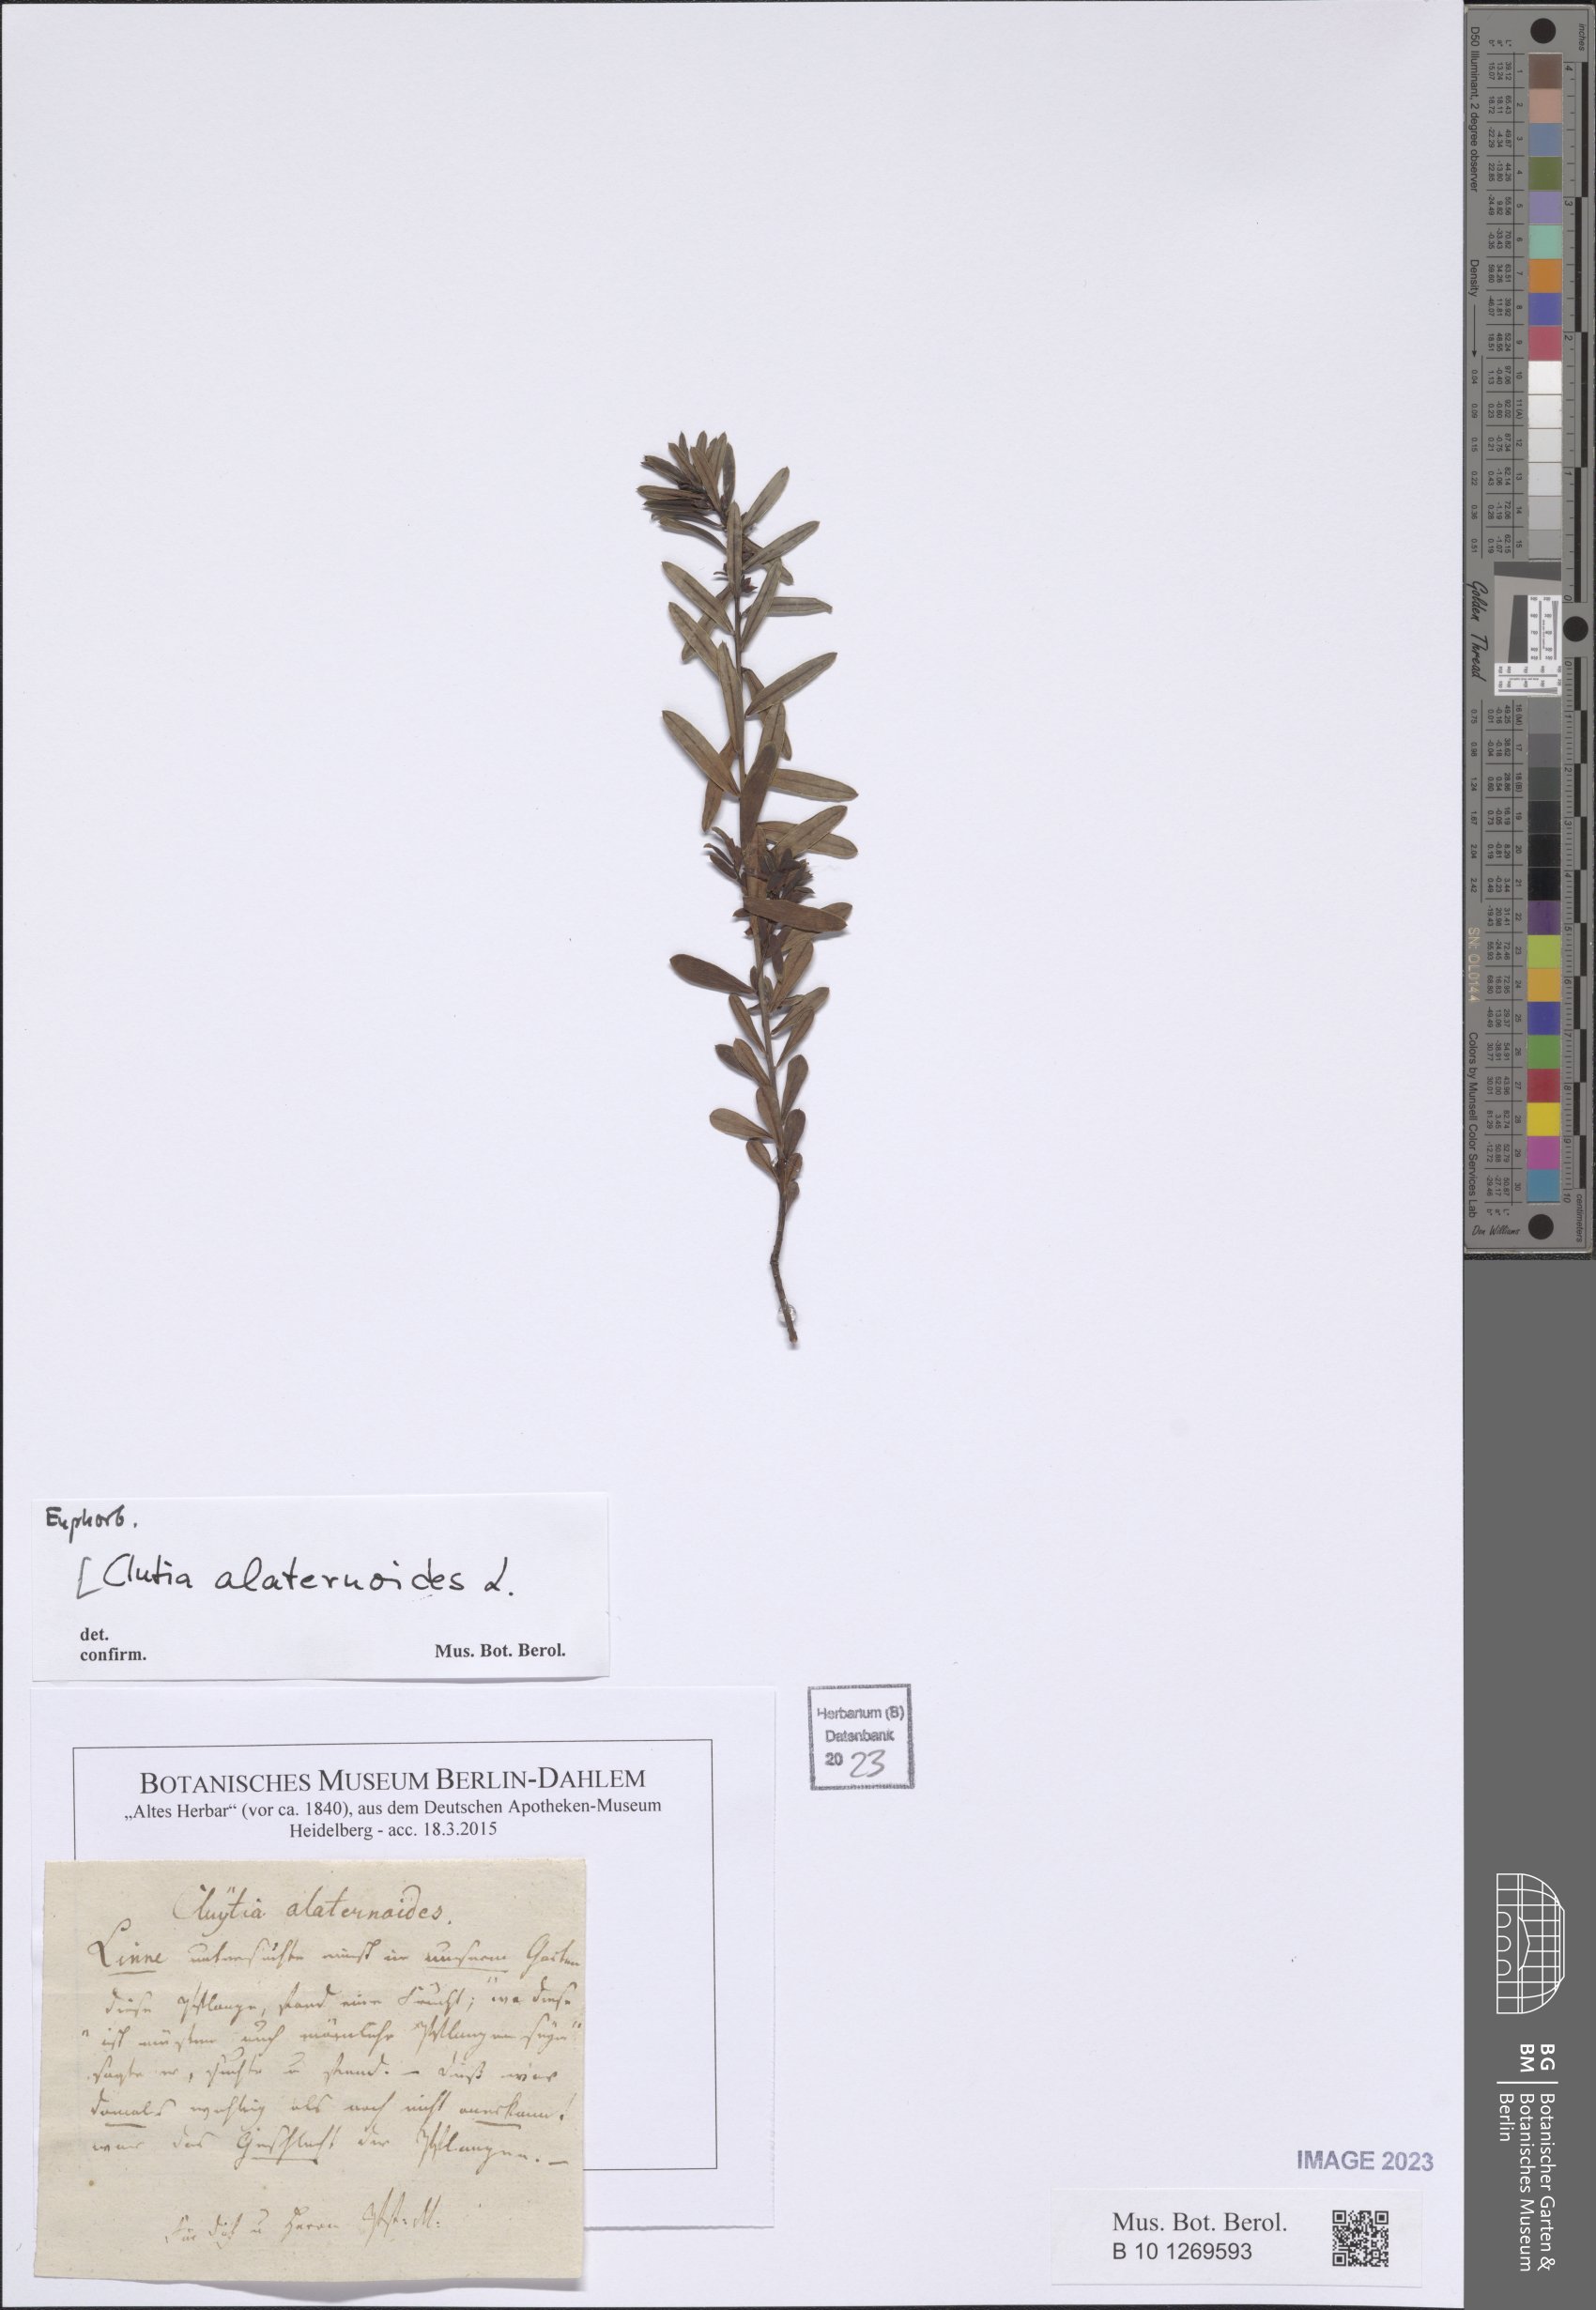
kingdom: Plantae
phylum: Tracheophyta
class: Magnoliopsida
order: Malpighiales
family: Peraceae
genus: Clutia
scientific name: Clutia alaternoides
